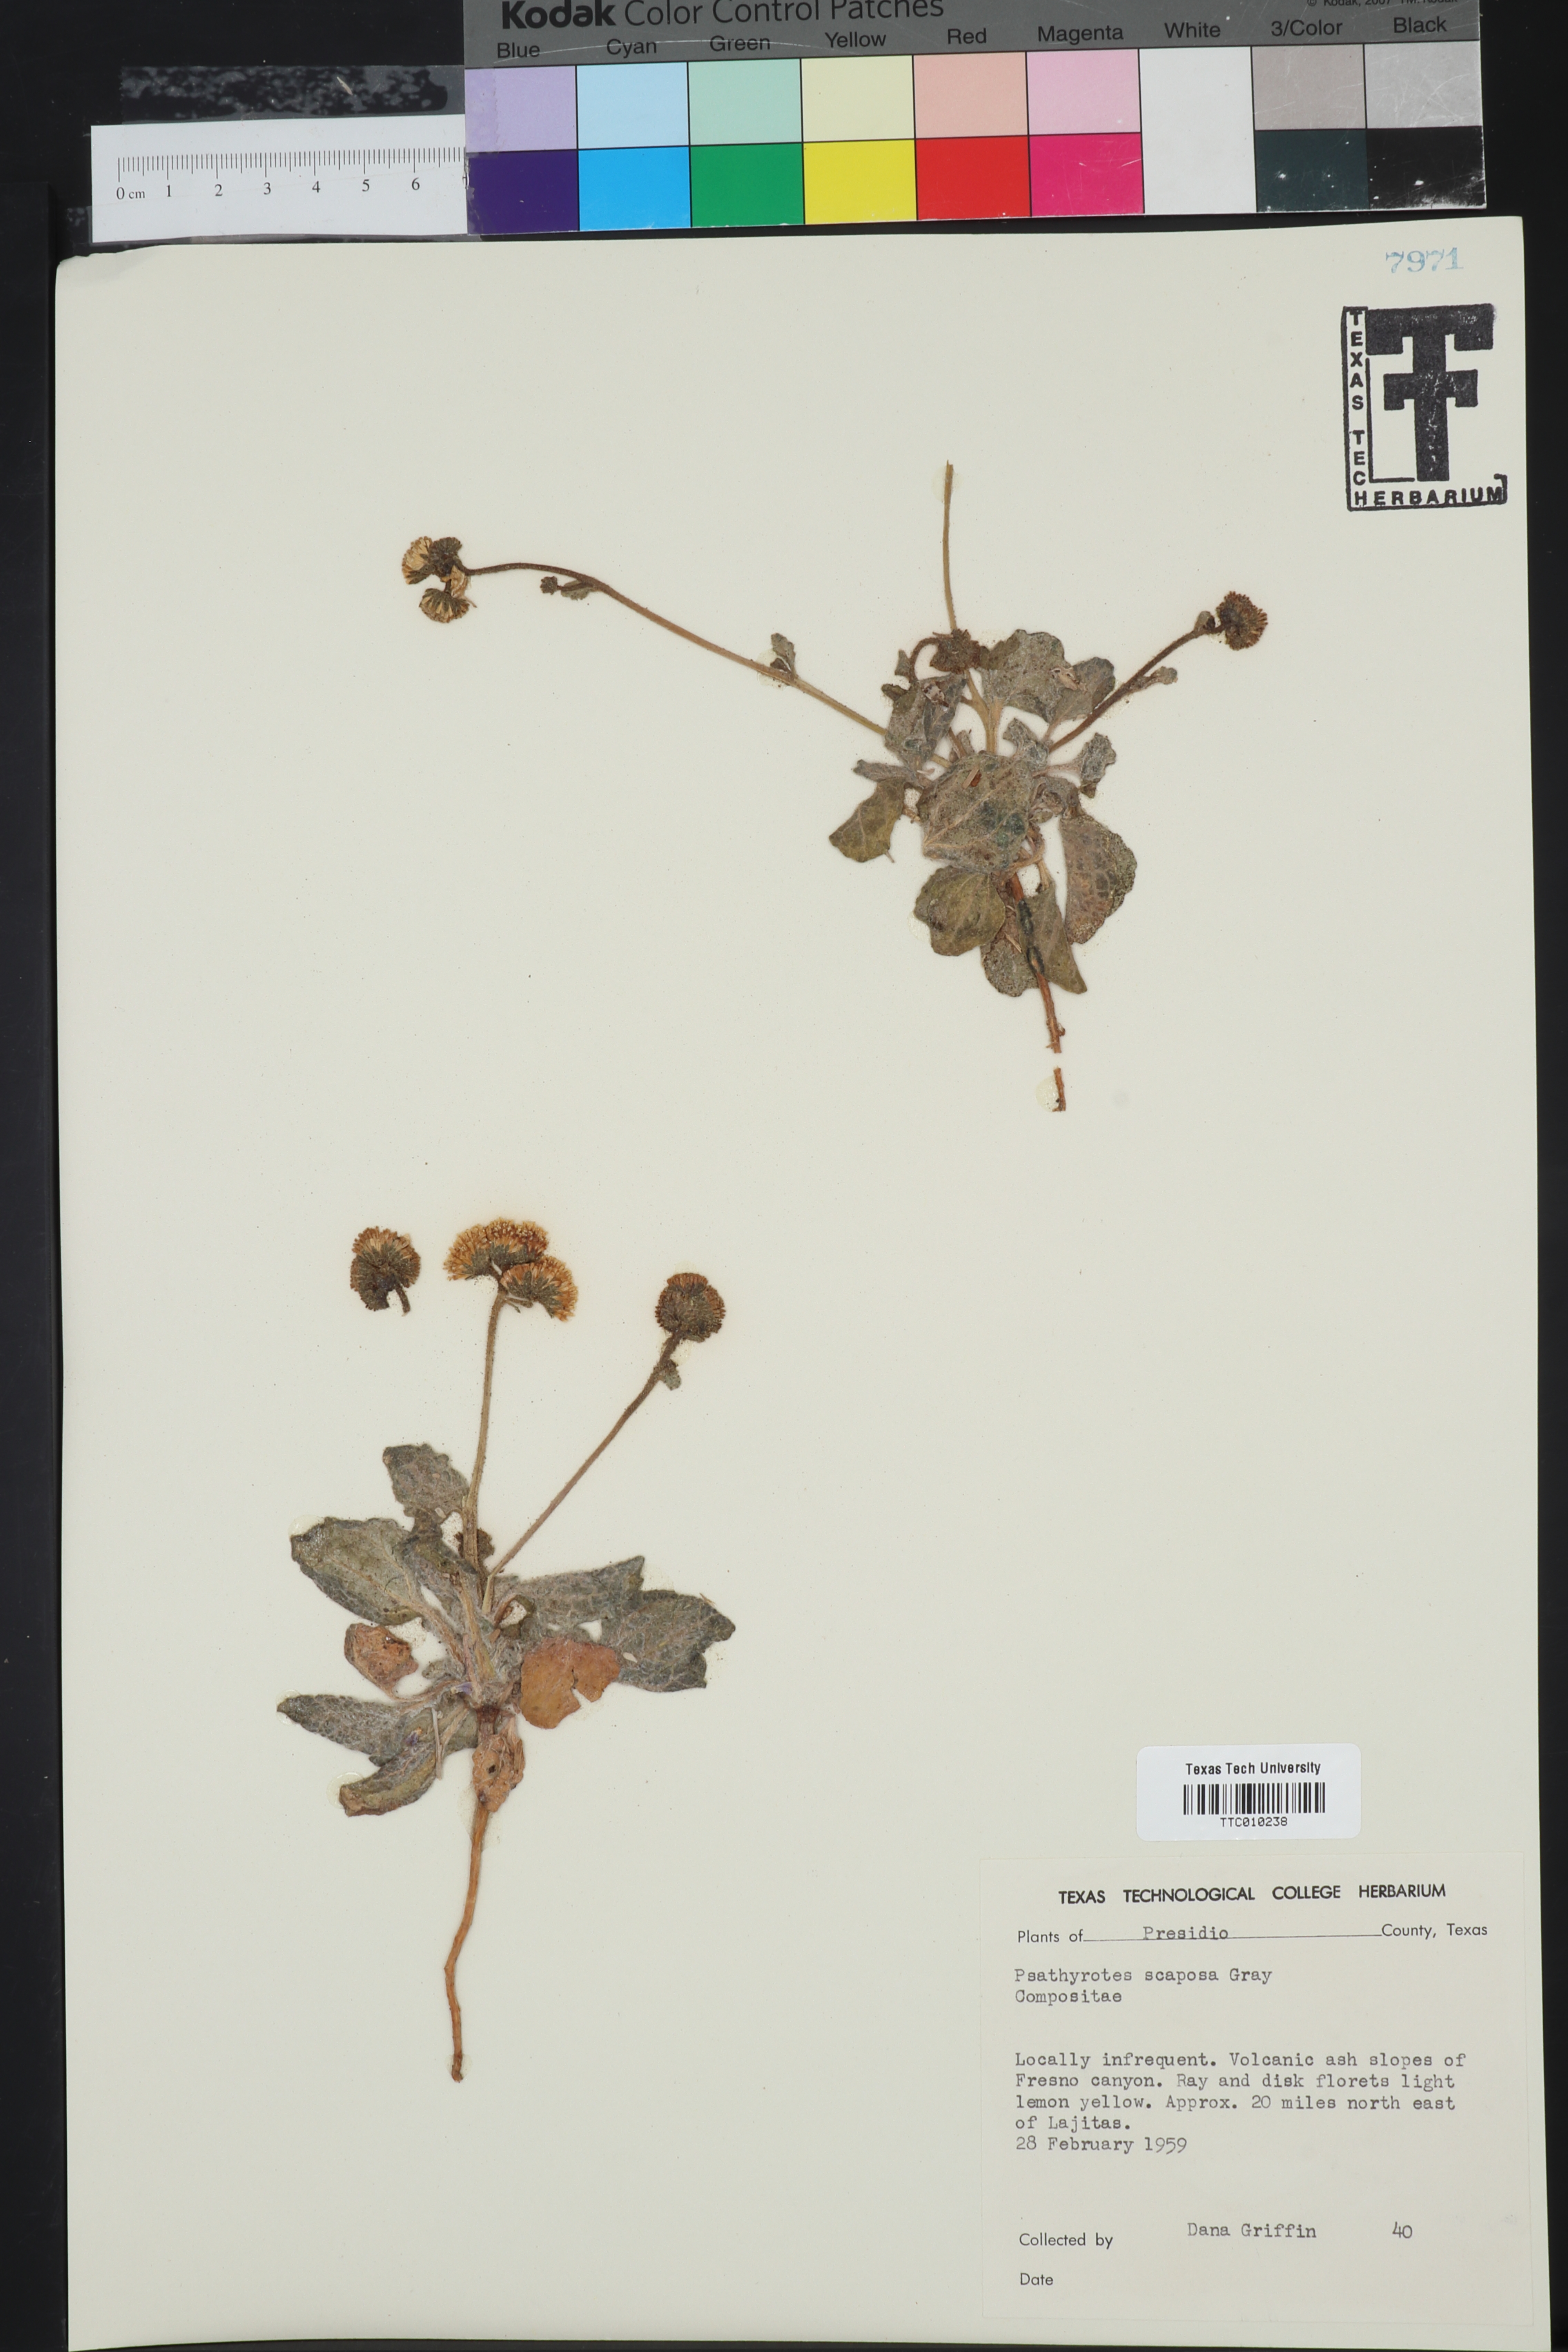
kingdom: Plantae
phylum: Tracheophyta
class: Magnoliopsida
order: Asterales
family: Asteraceae
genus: Psathyrotopsis
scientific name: Psathyrotopsis scaposa
